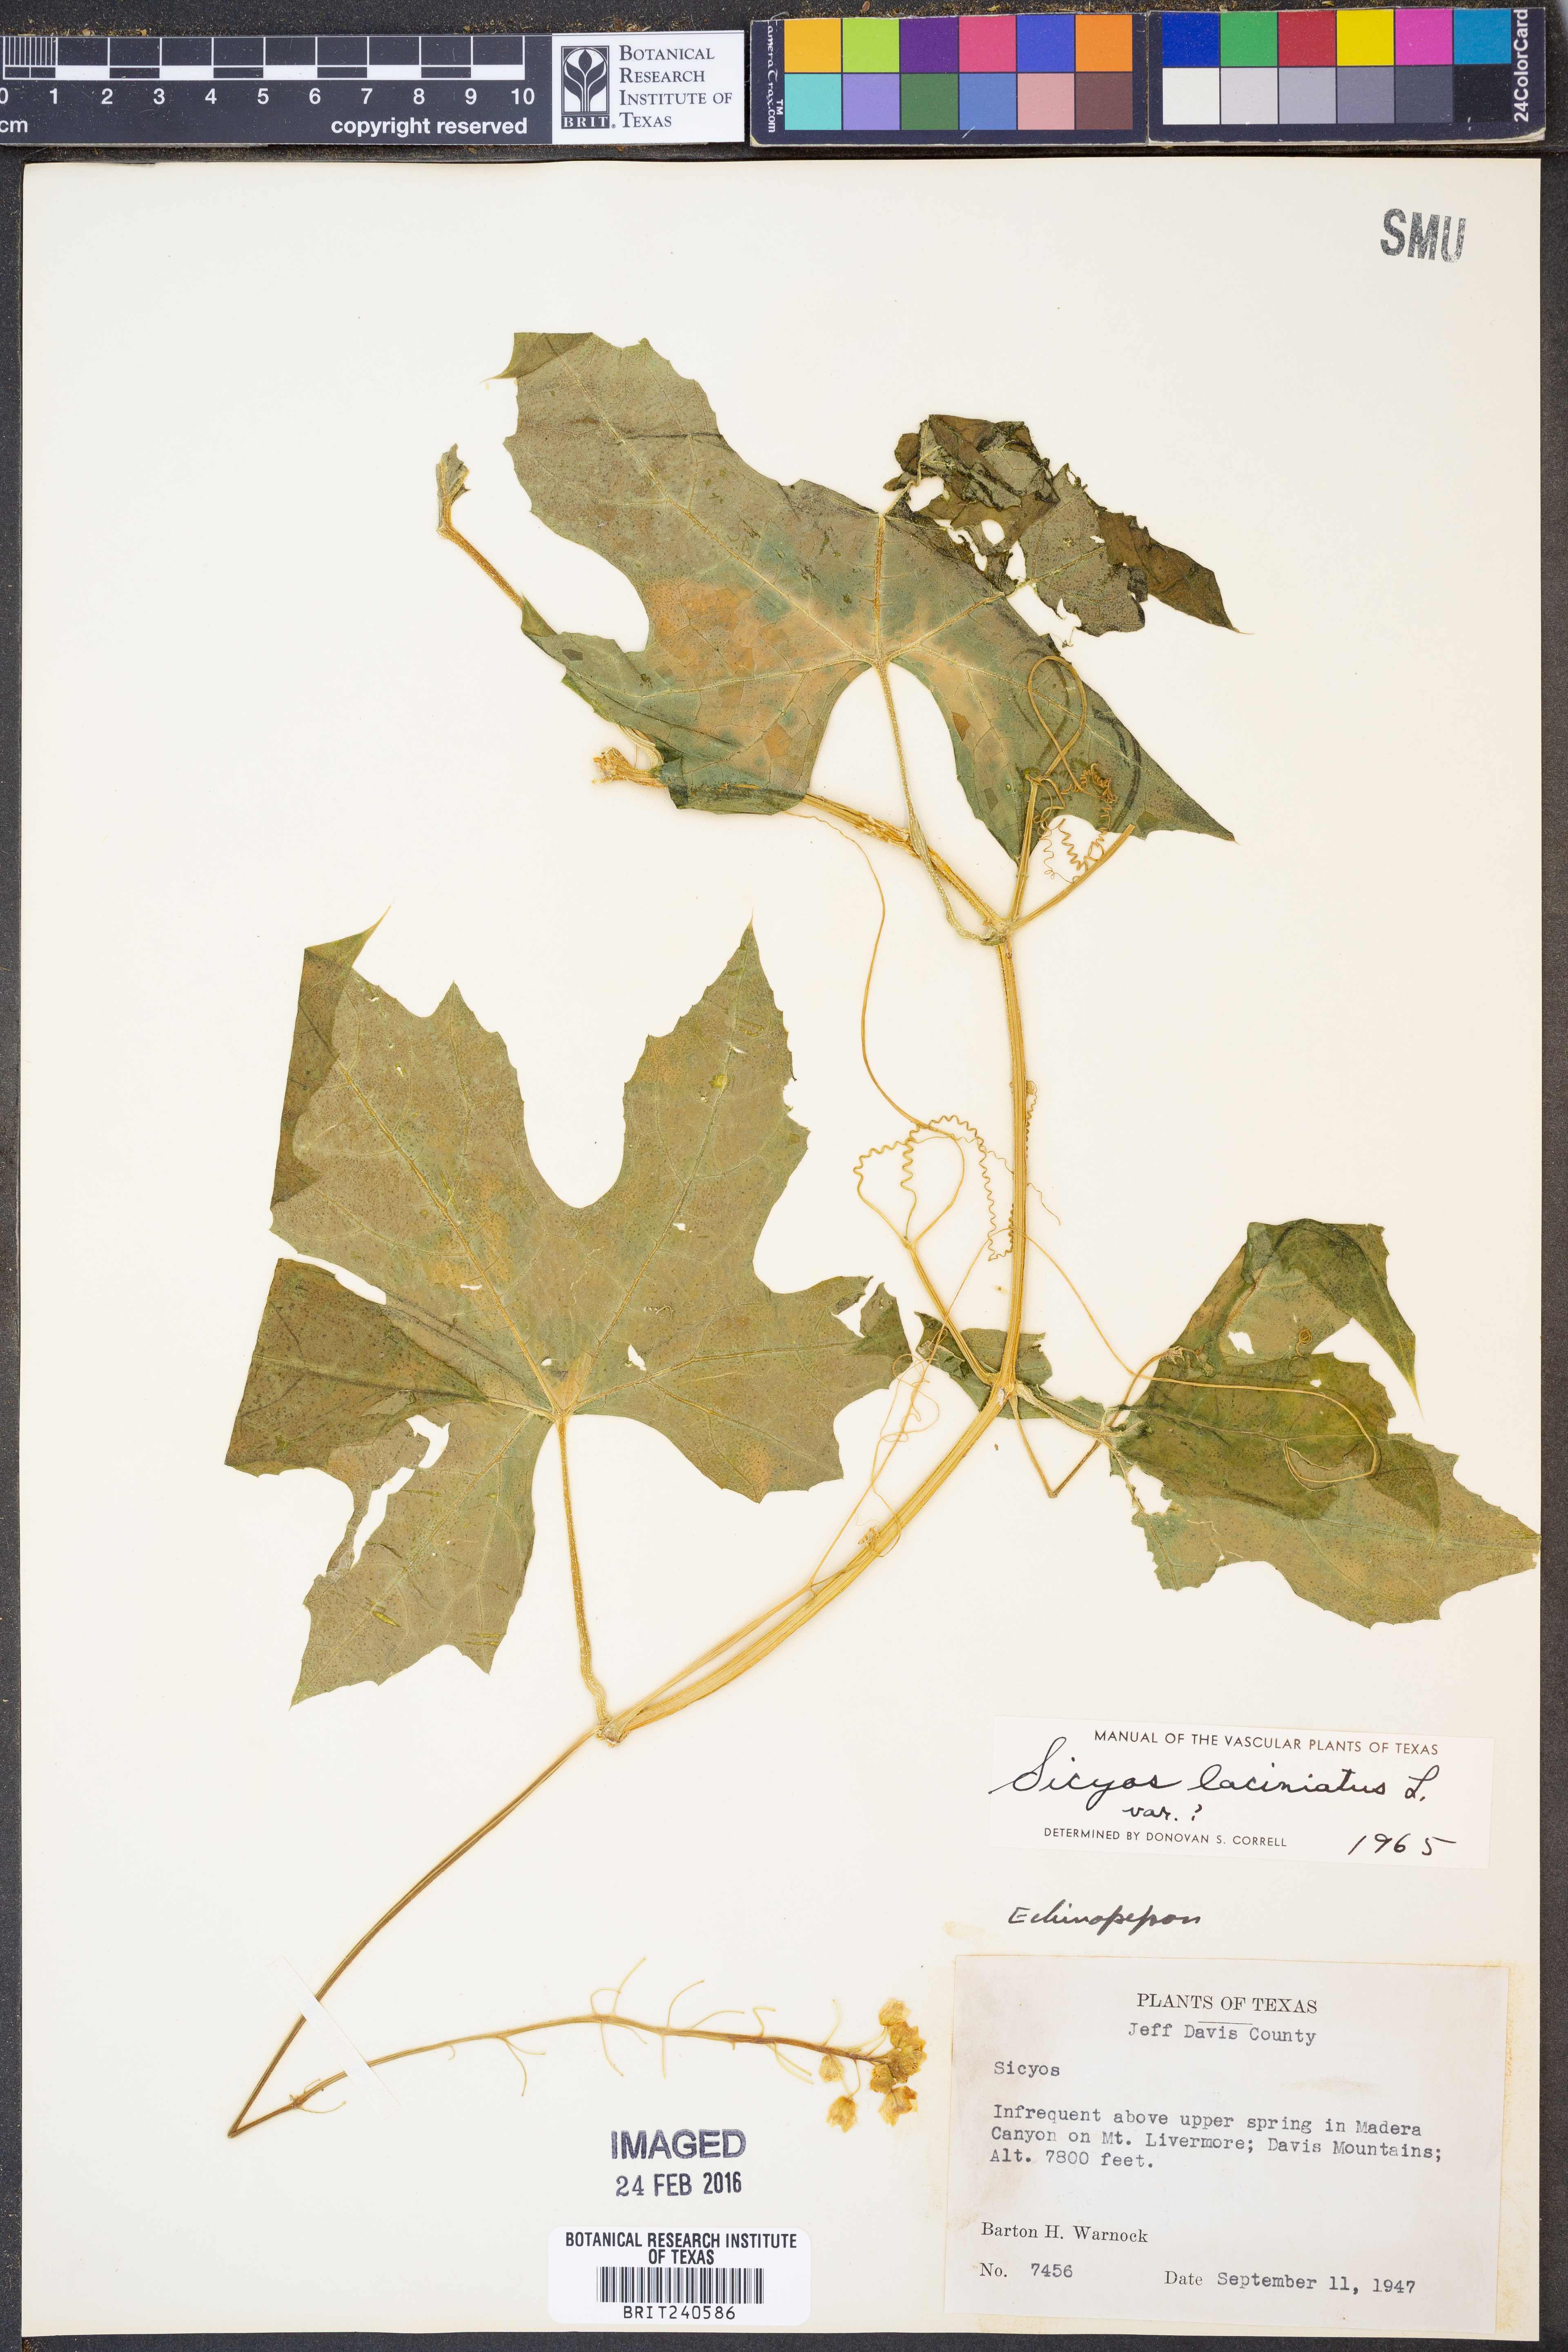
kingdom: Plantae
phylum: Tracheophyta
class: Magnoliopsida
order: Cucurbitales
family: Cucurbitaceae
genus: Sicyos
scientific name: Sicyos laciniatus
